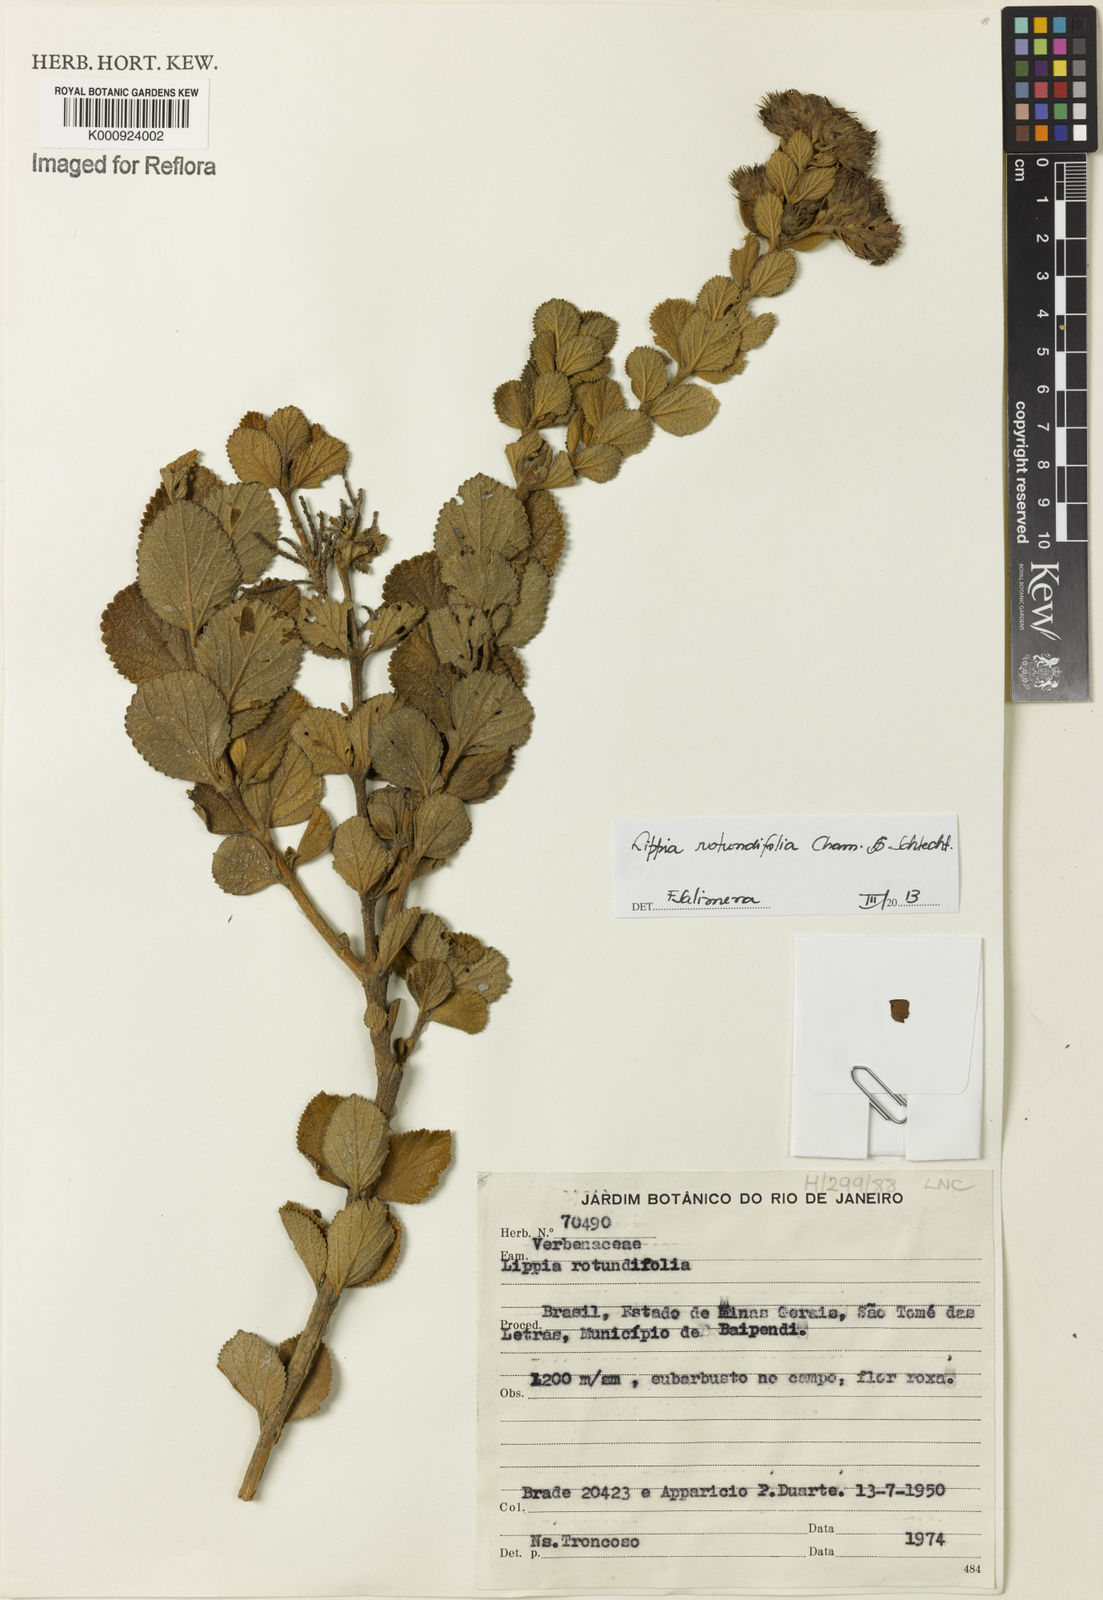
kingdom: Plantae
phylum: Tracheophyta
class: Magnoliopsida
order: Lamiales
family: Verbenaceae
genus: Lippia
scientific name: Lippia rotundifolia
